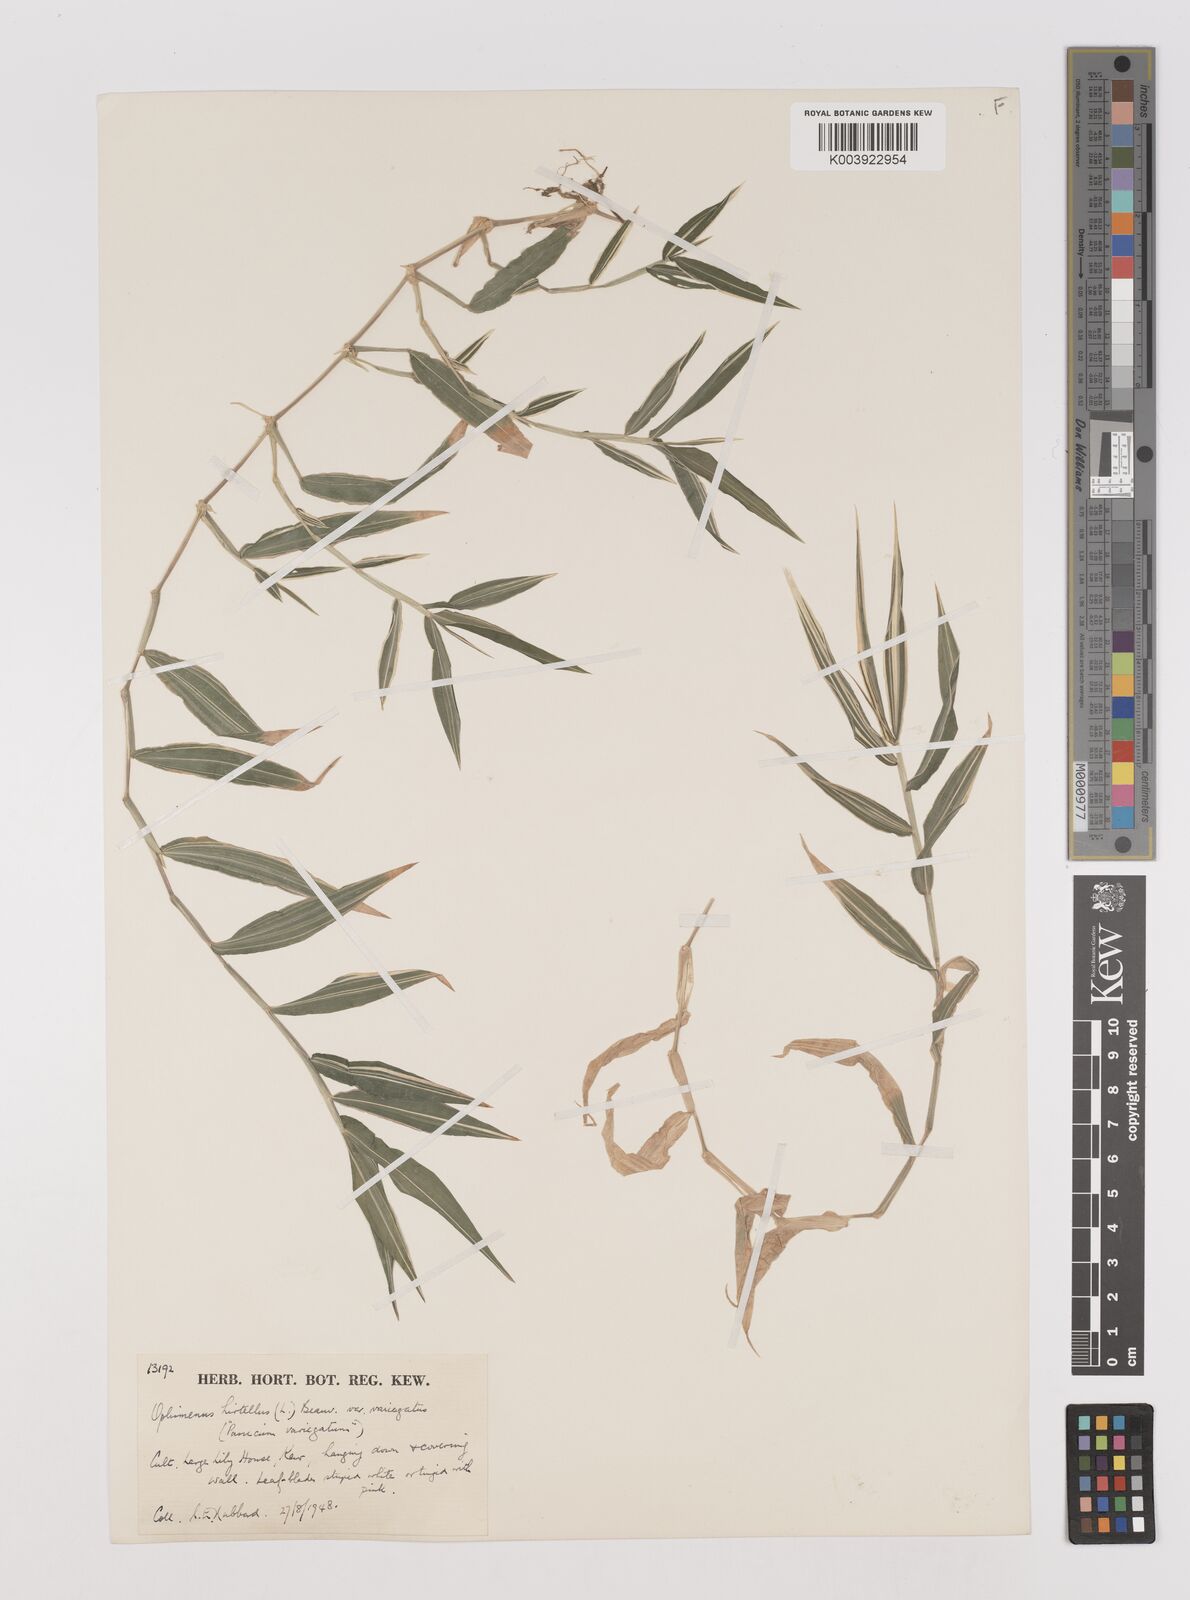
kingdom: Plantae
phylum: Tracheophyta
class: Liliopsida
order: Poales
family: Poaceae
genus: Oplismenus
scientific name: Oplismenus hirtellus
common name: Basketgrass
